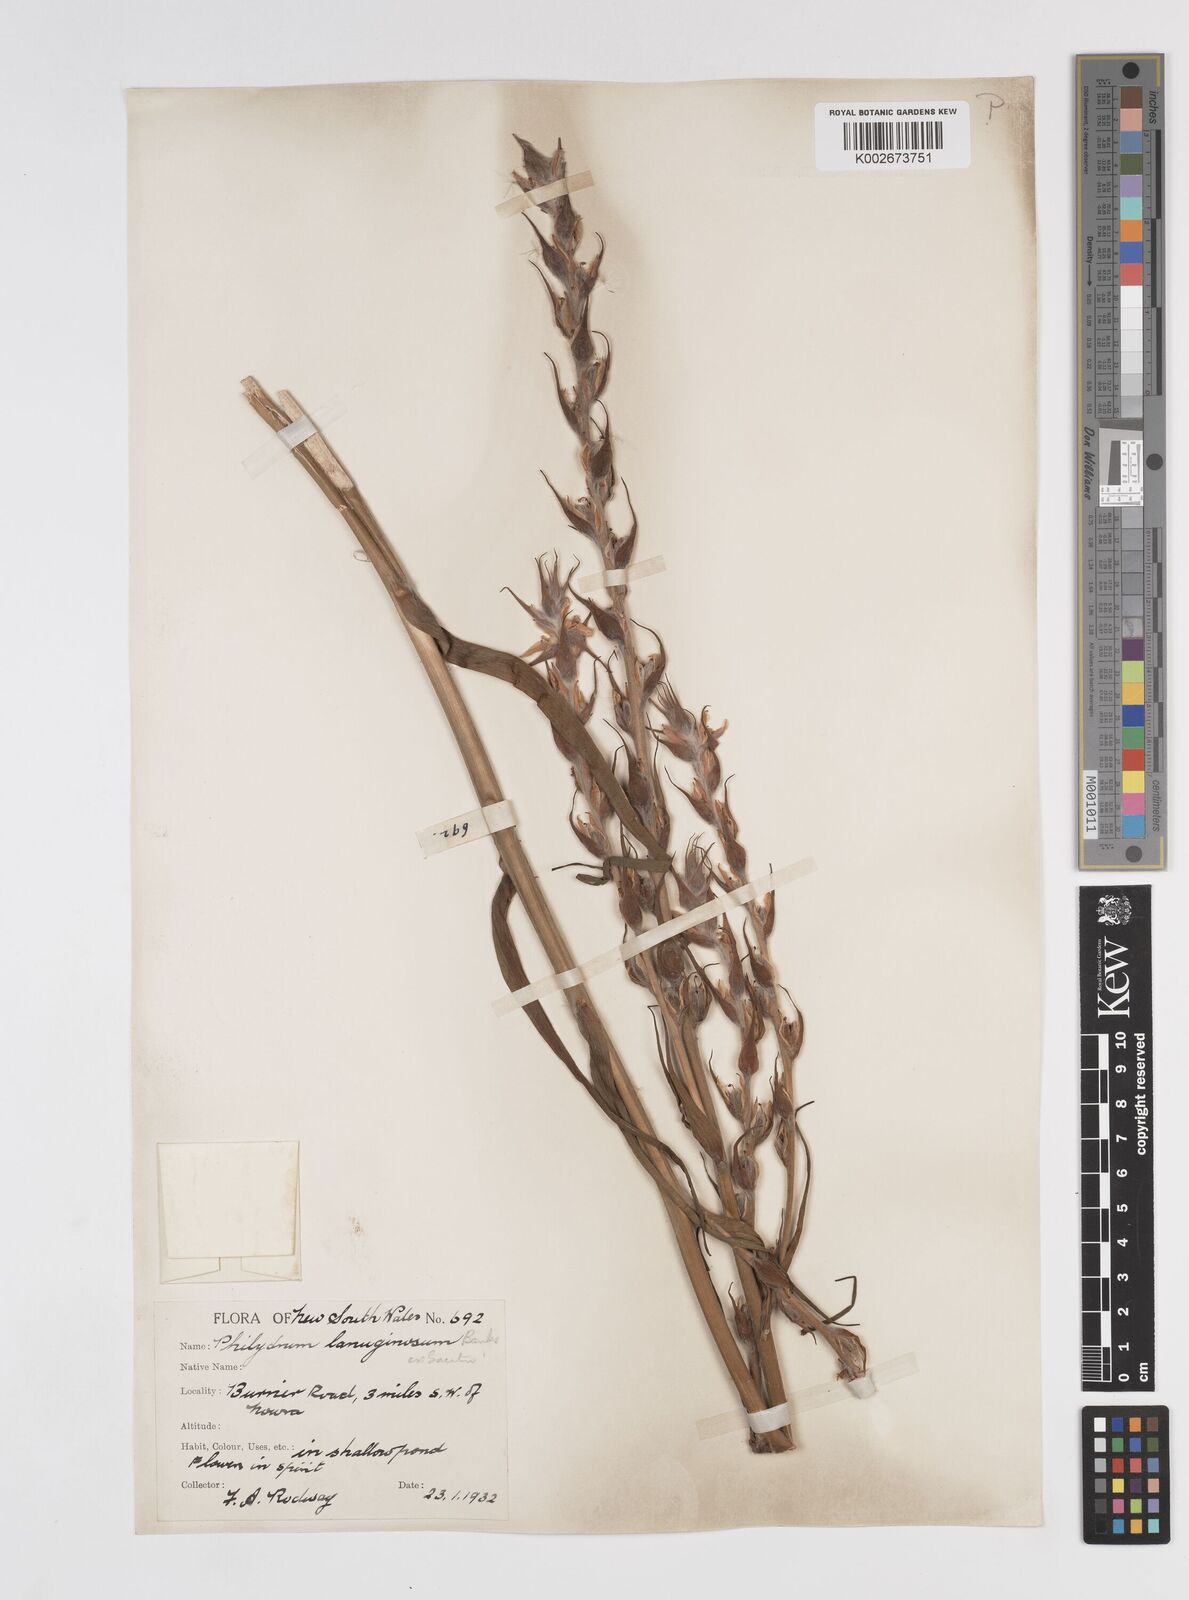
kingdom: Plantae
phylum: Tracheophyta
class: Liliopsida
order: Commelinales
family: Philydraceae
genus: Philydrum
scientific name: Philydrum lanuginosum
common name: Woolly frog's mouth
